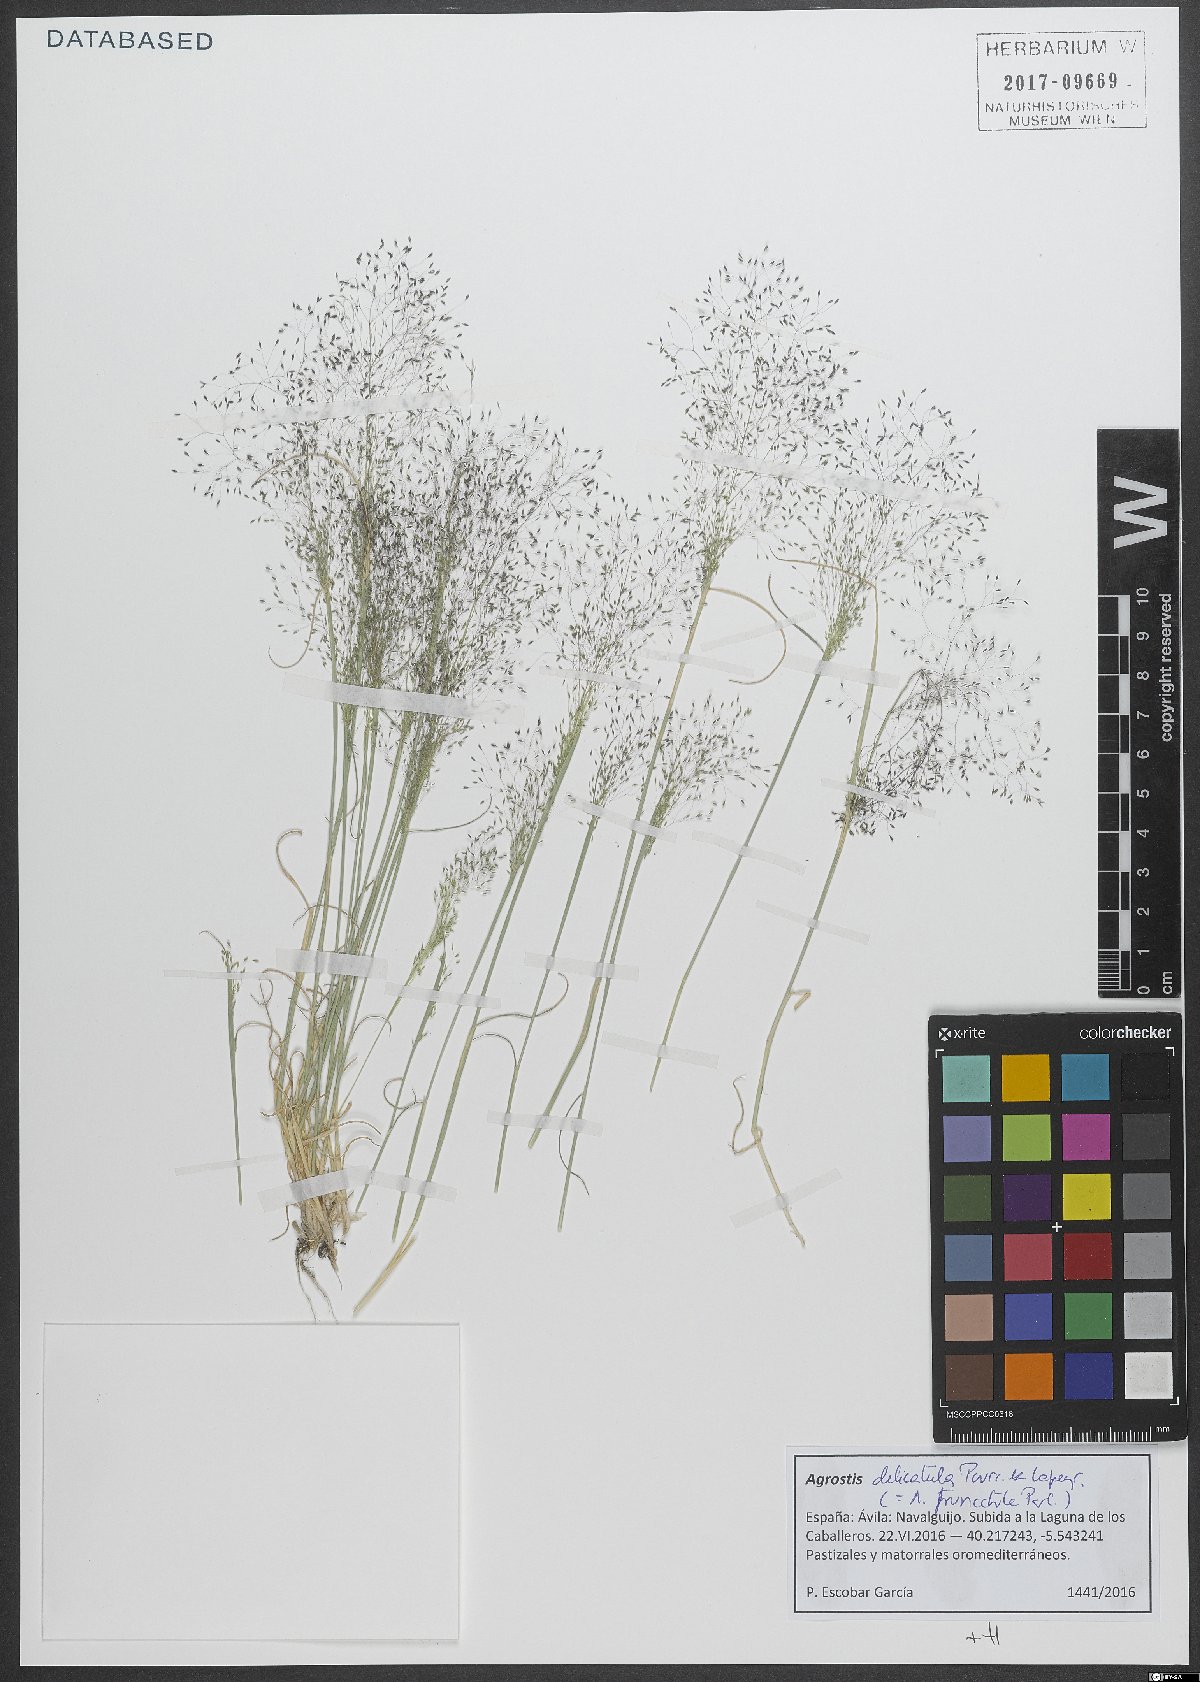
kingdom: Plantae
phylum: Tracheophyta
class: Liliopsida
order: Poales
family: Poaceae
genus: Agrostis
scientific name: Agrostis castellana
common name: Highland bent
